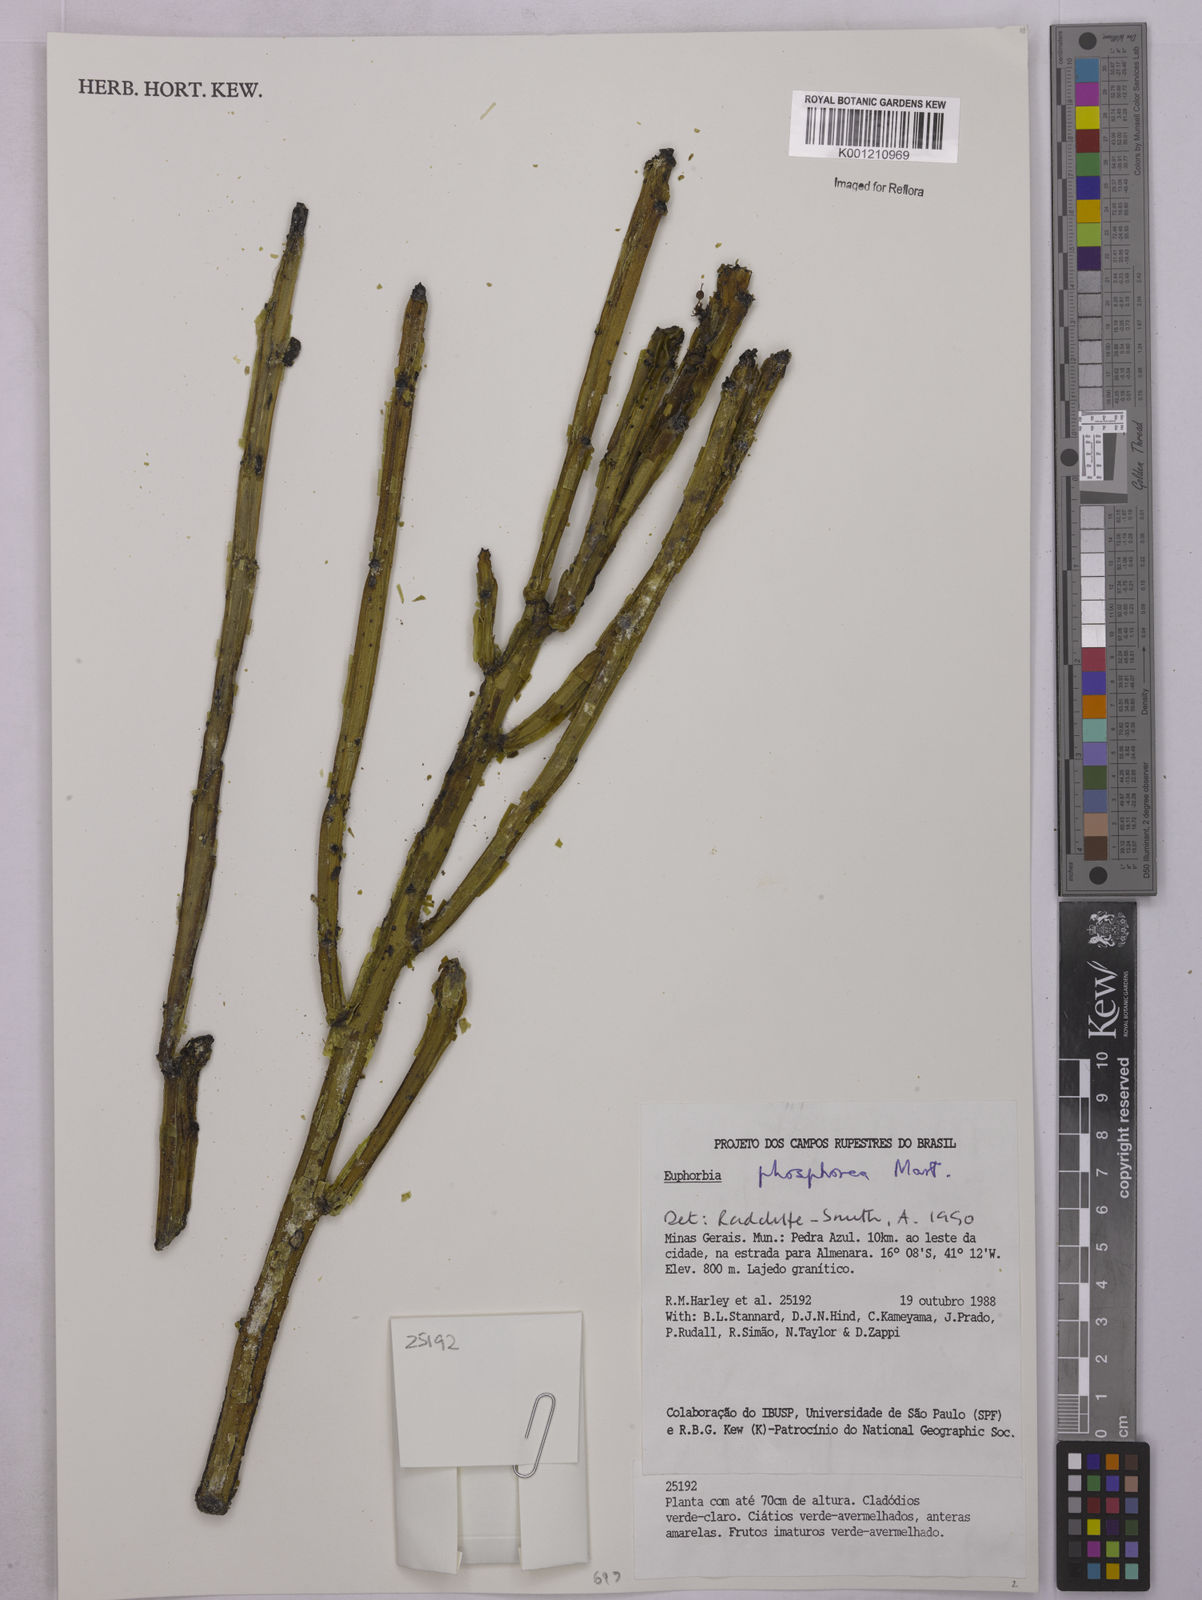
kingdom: Plantae
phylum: Tracheophyta
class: Magnoliopsida
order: Malpighiales
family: Euphorbiaceae
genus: Euphorbia
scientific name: Euphorbia phosphorea
